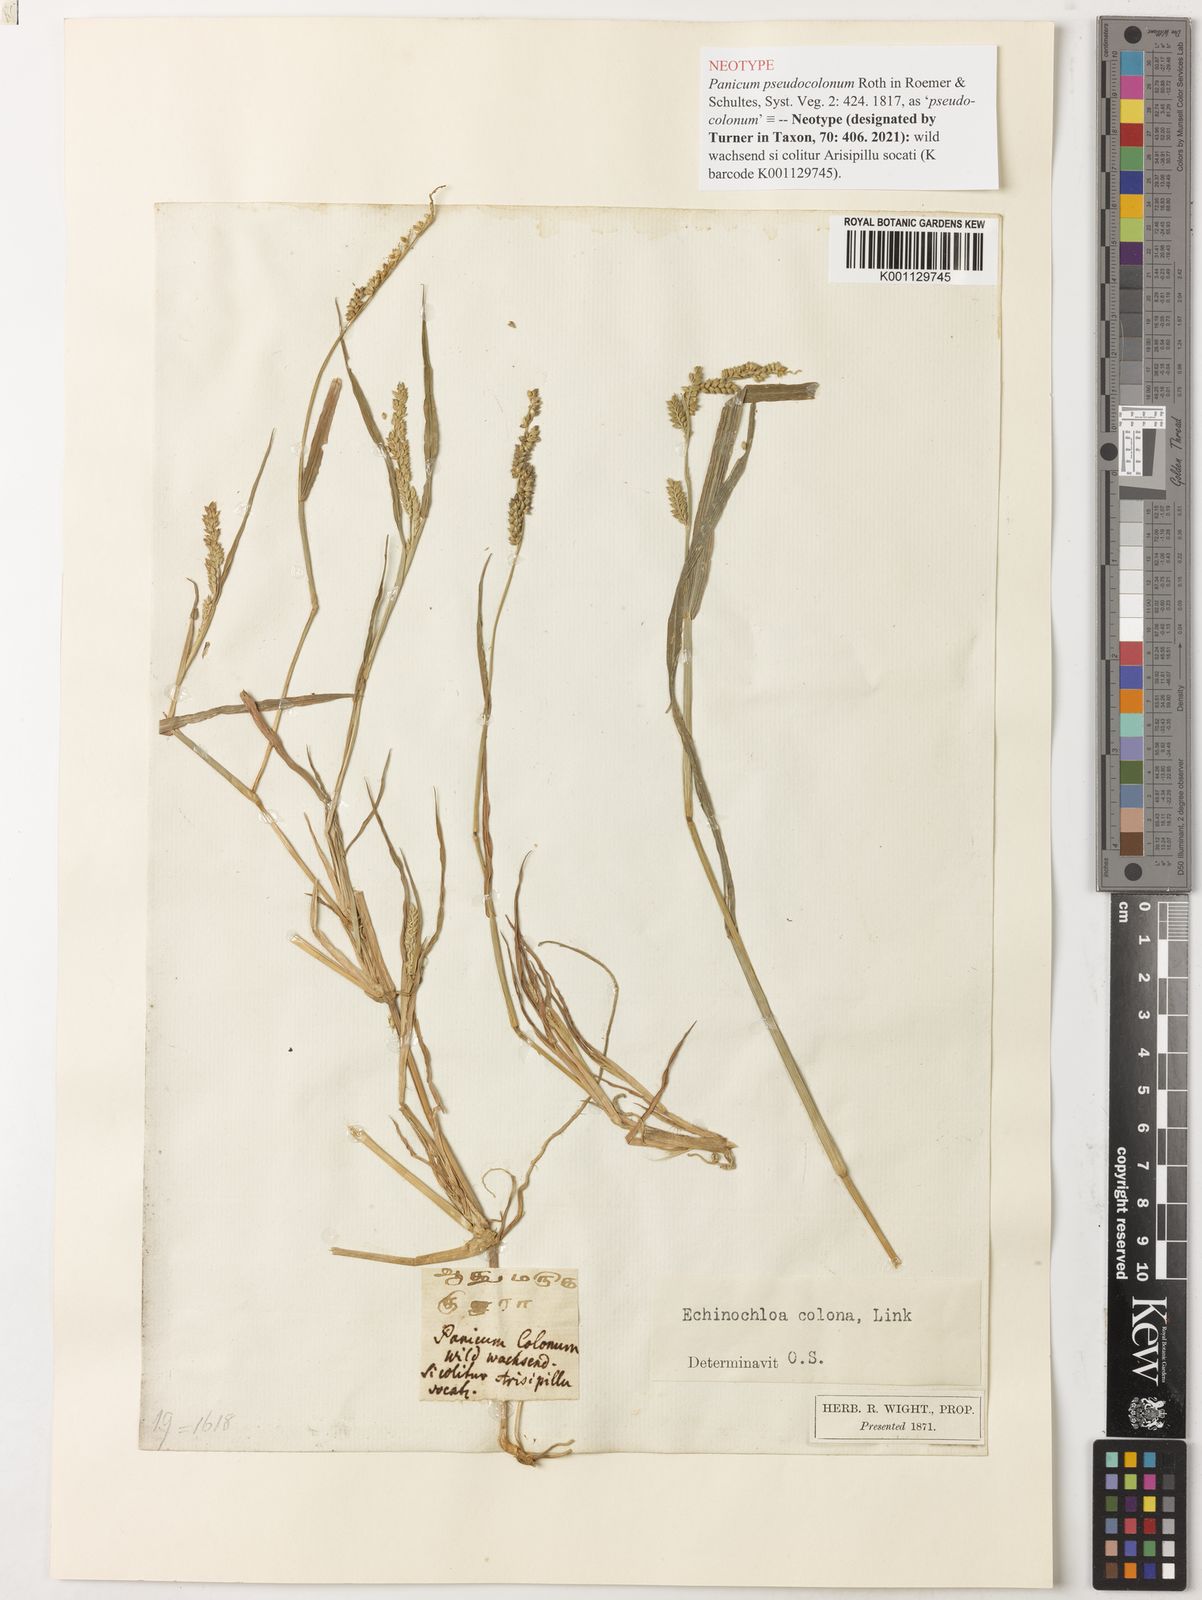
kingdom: Plantae
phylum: Tracheophyta
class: Liliopsida
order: Poales
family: Poaceae
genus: Echinochloa
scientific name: Echinochloa colonum
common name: Jungle rice
